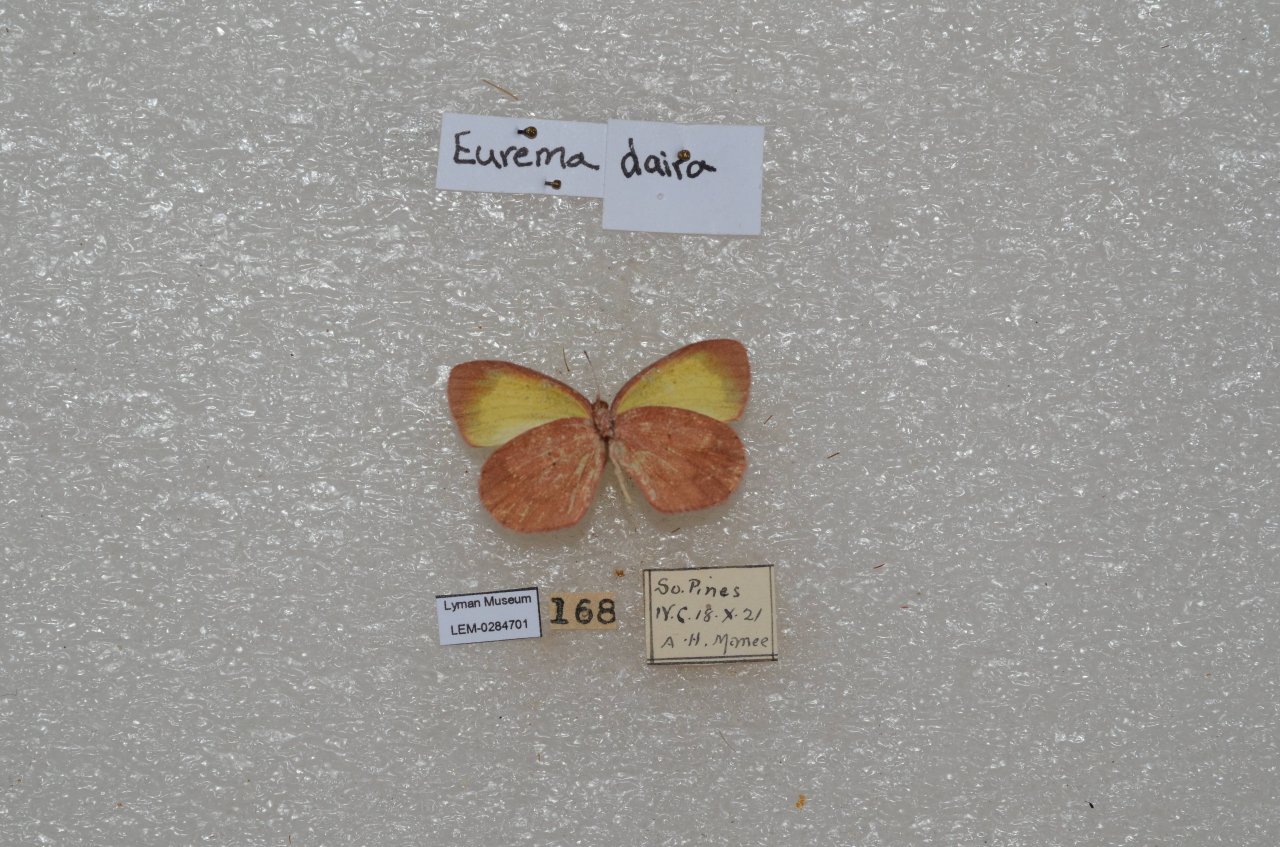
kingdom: Animalia
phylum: Arthropoda
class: Insecta
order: Lepidoptera
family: Pieridae
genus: Eurema
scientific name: Eurema daira
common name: Barred Yellow
